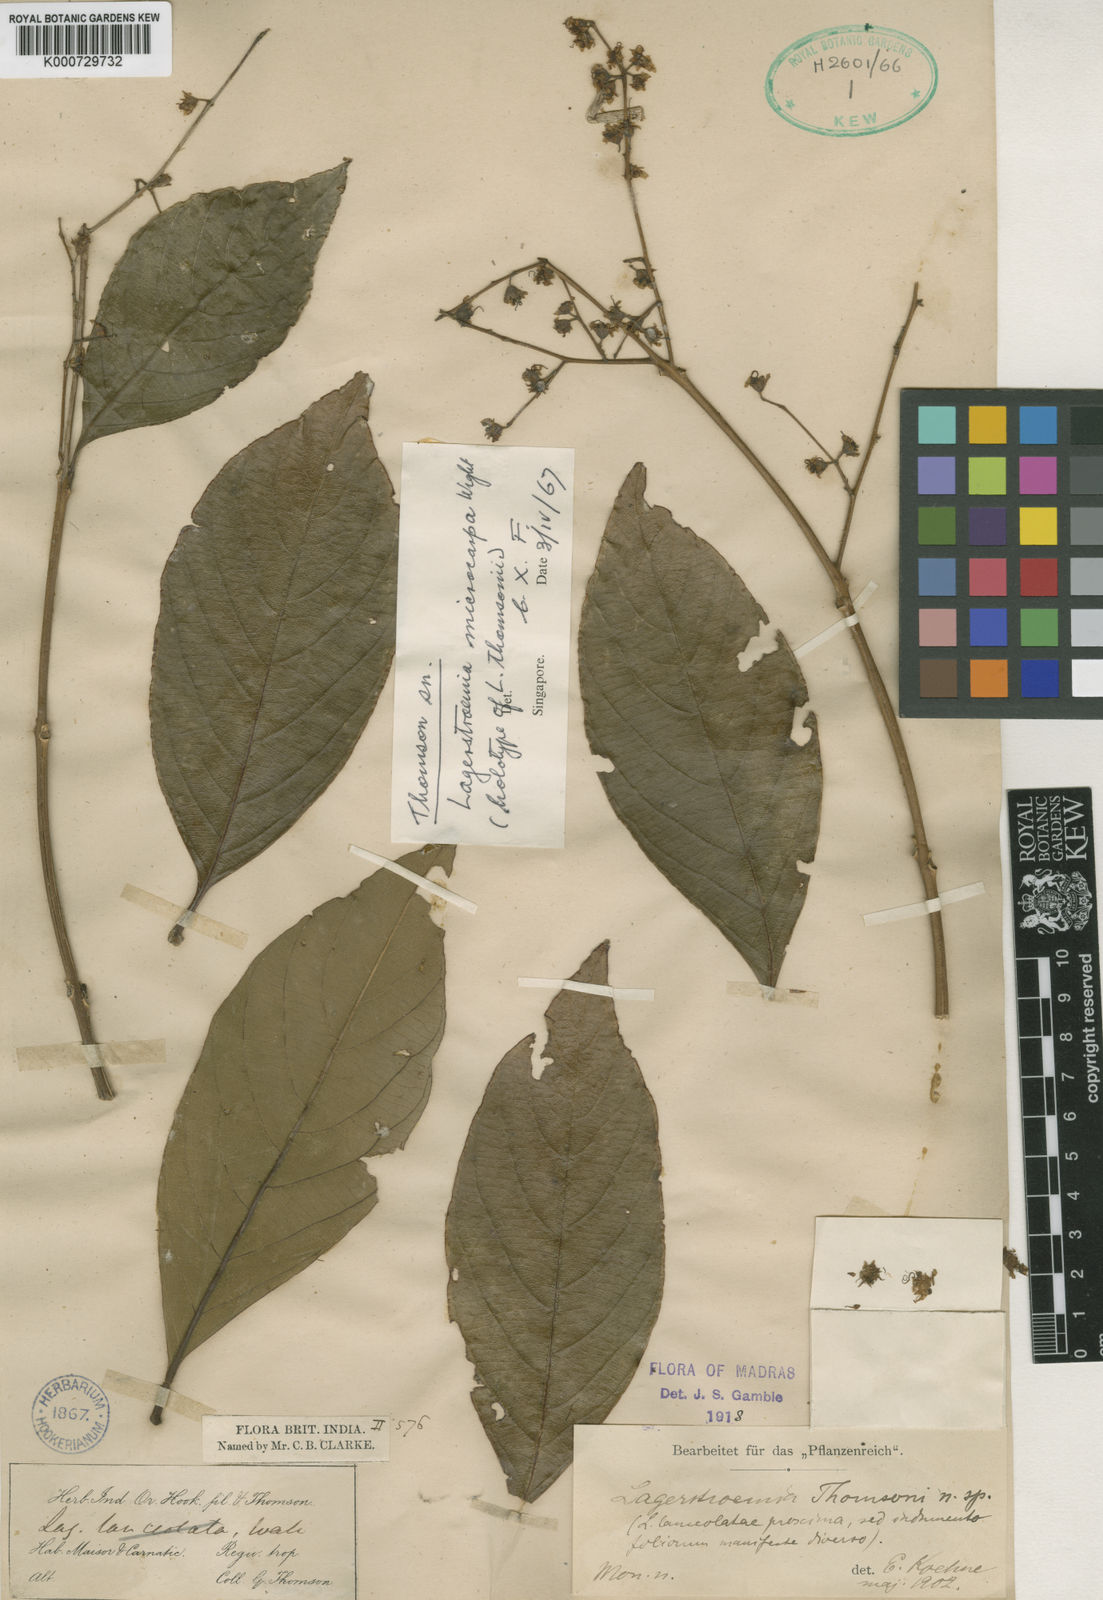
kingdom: Plantae
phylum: Tracheophyta
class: Magnoliopsida
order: Myrtales
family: Lythraceae
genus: Lagerstroemia
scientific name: Lagerstroemia microcarpa
